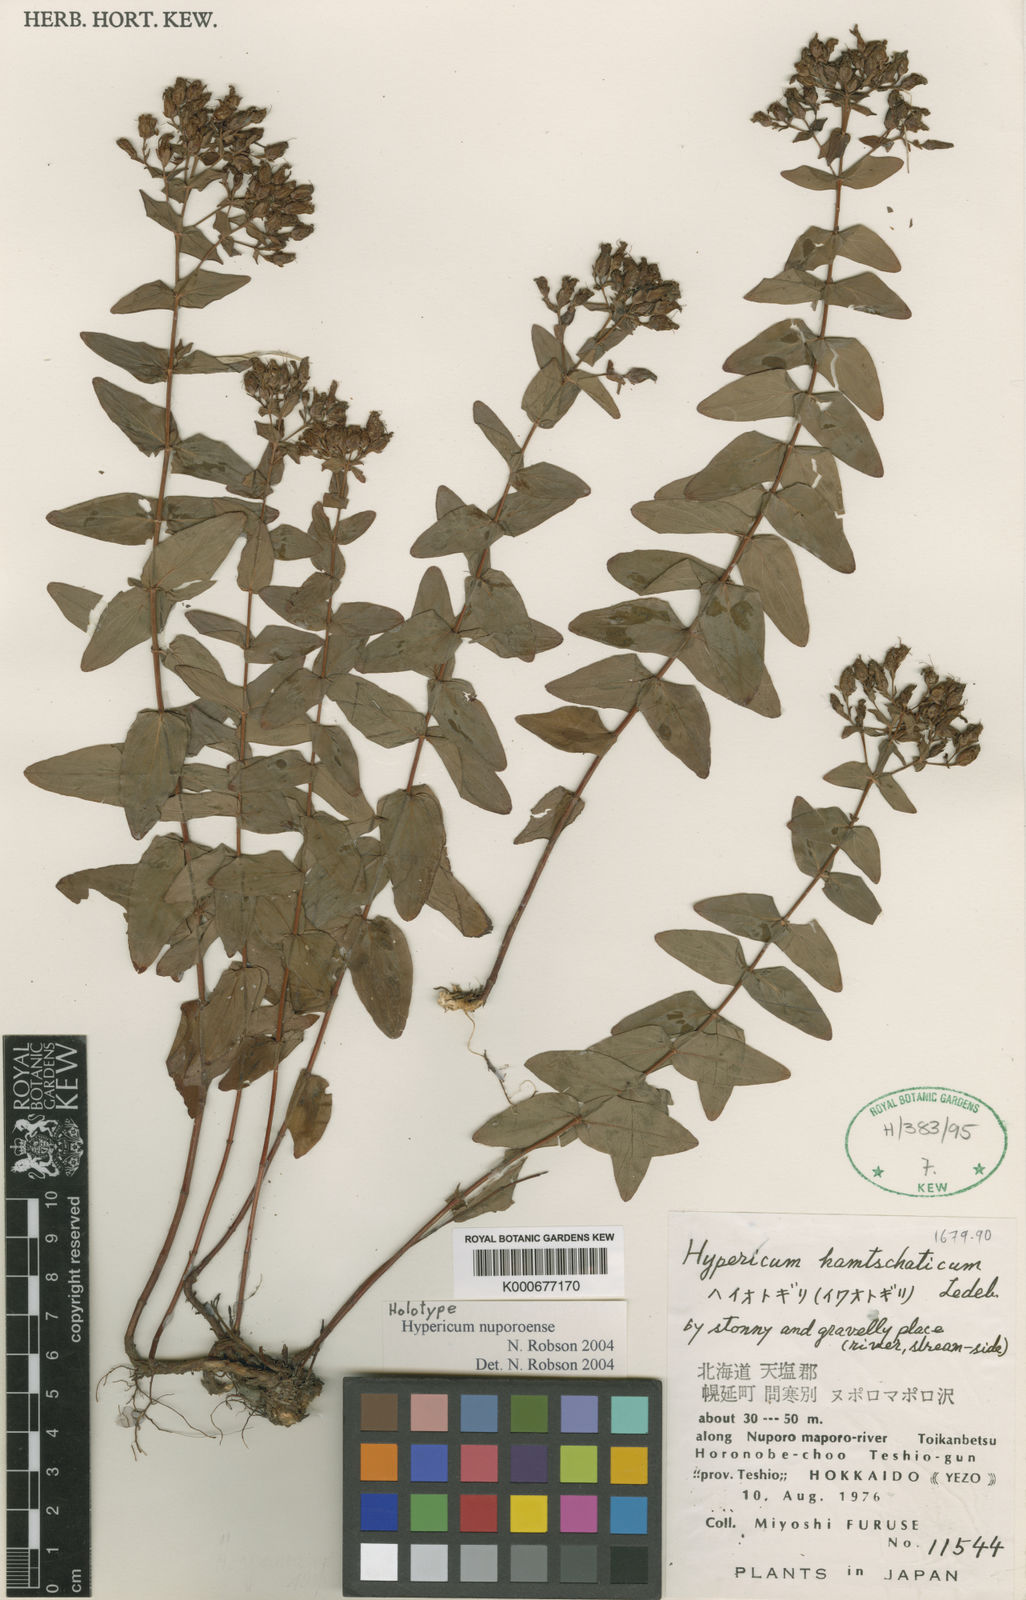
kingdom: Plantae
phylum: Tracheophyta
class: Magnoliopsida
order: Malpighiales
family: Hypericaceae
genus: Hypericum
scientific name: Hypericum kamtschaticum
